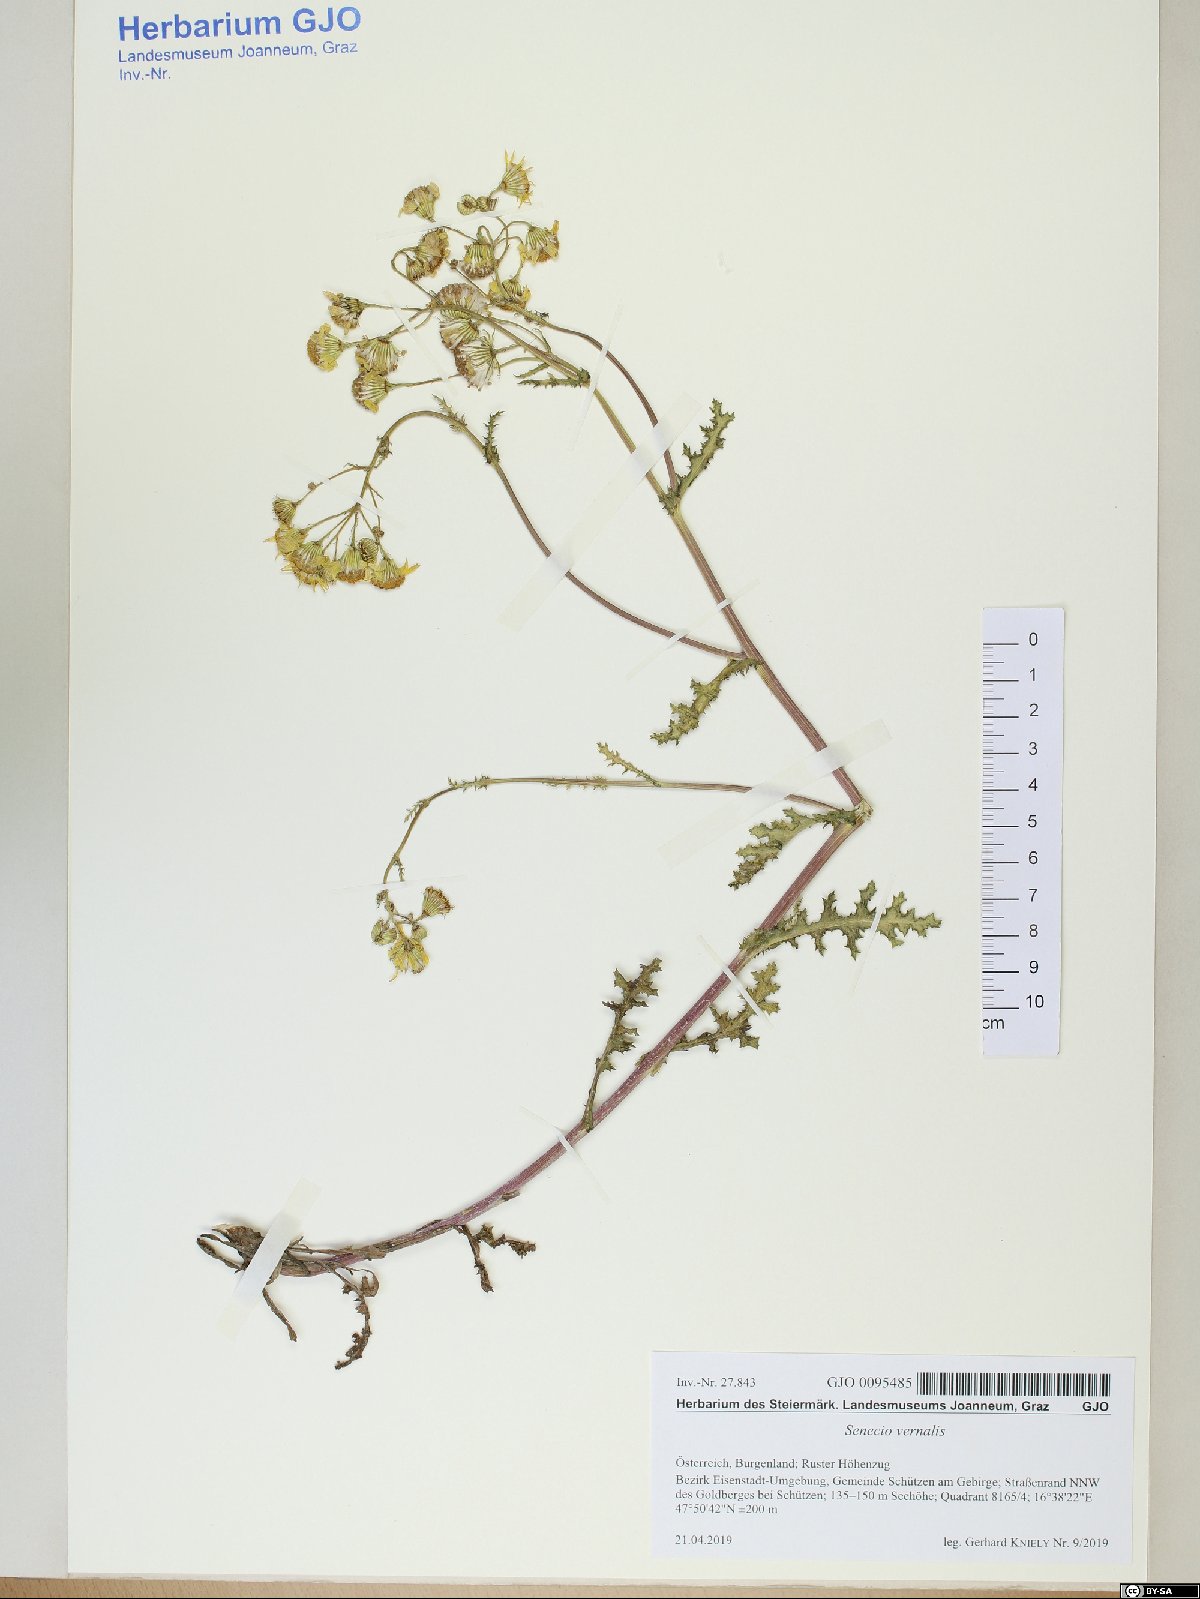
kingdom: Plantae
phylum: Tracheophyta
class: Magnoliopsida
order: Asterales
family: Asteraceae
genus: Senecio
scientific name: Senecio vernalis
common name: Eastern groundsel
